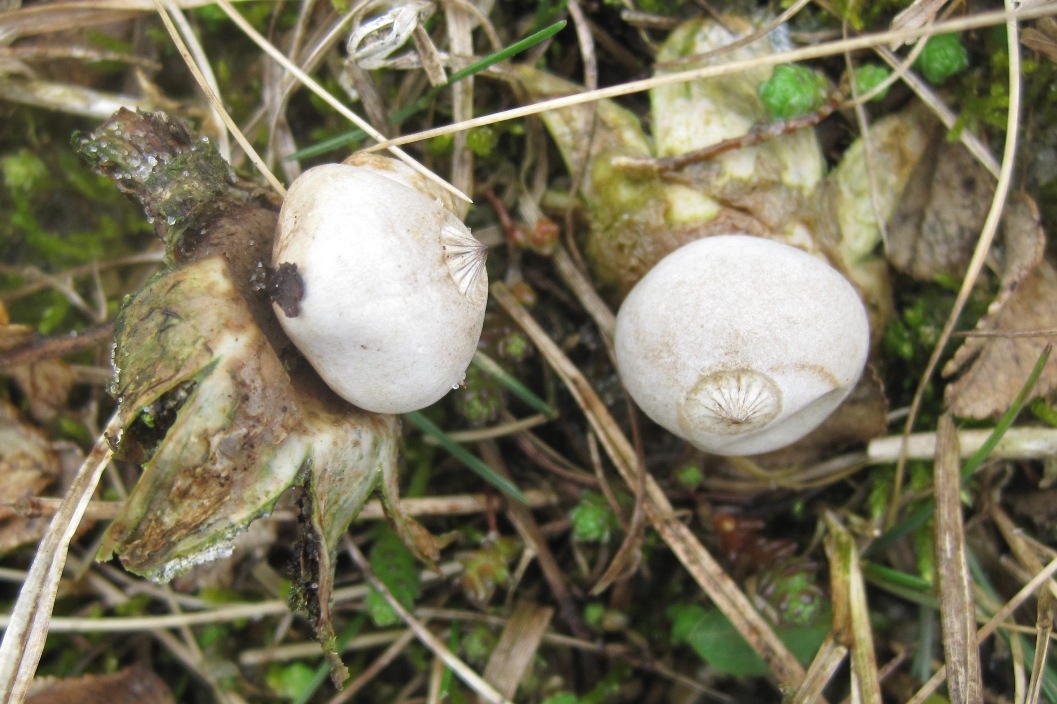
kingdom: Fungi
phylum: Basidiomycota
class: Agaricomycetes
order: Geastrales
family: Geastraceae
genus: Geastrum
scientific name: Geastrum striatum
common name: dværg-stjernebold
